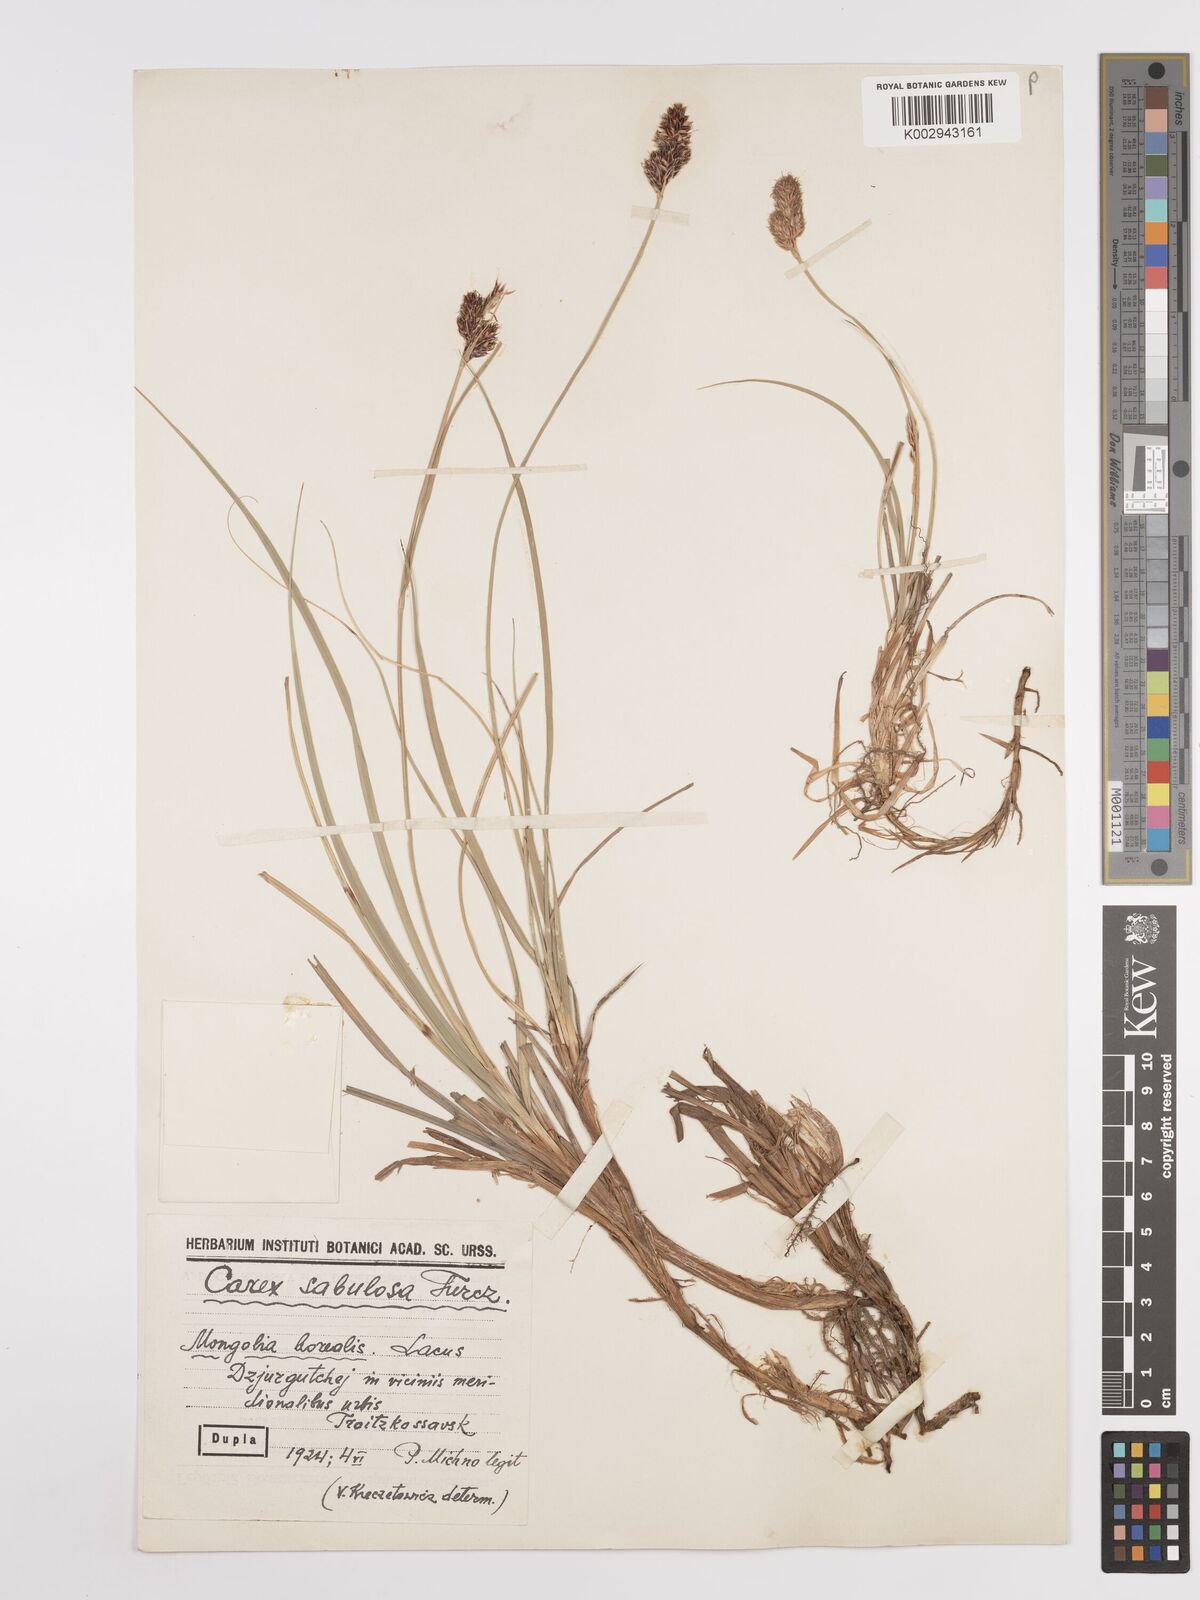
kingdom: Plantae
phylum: Tracheophyta
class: Liliopsida
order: Poales
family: Cyperaceae
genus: Carex
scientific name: Carex
